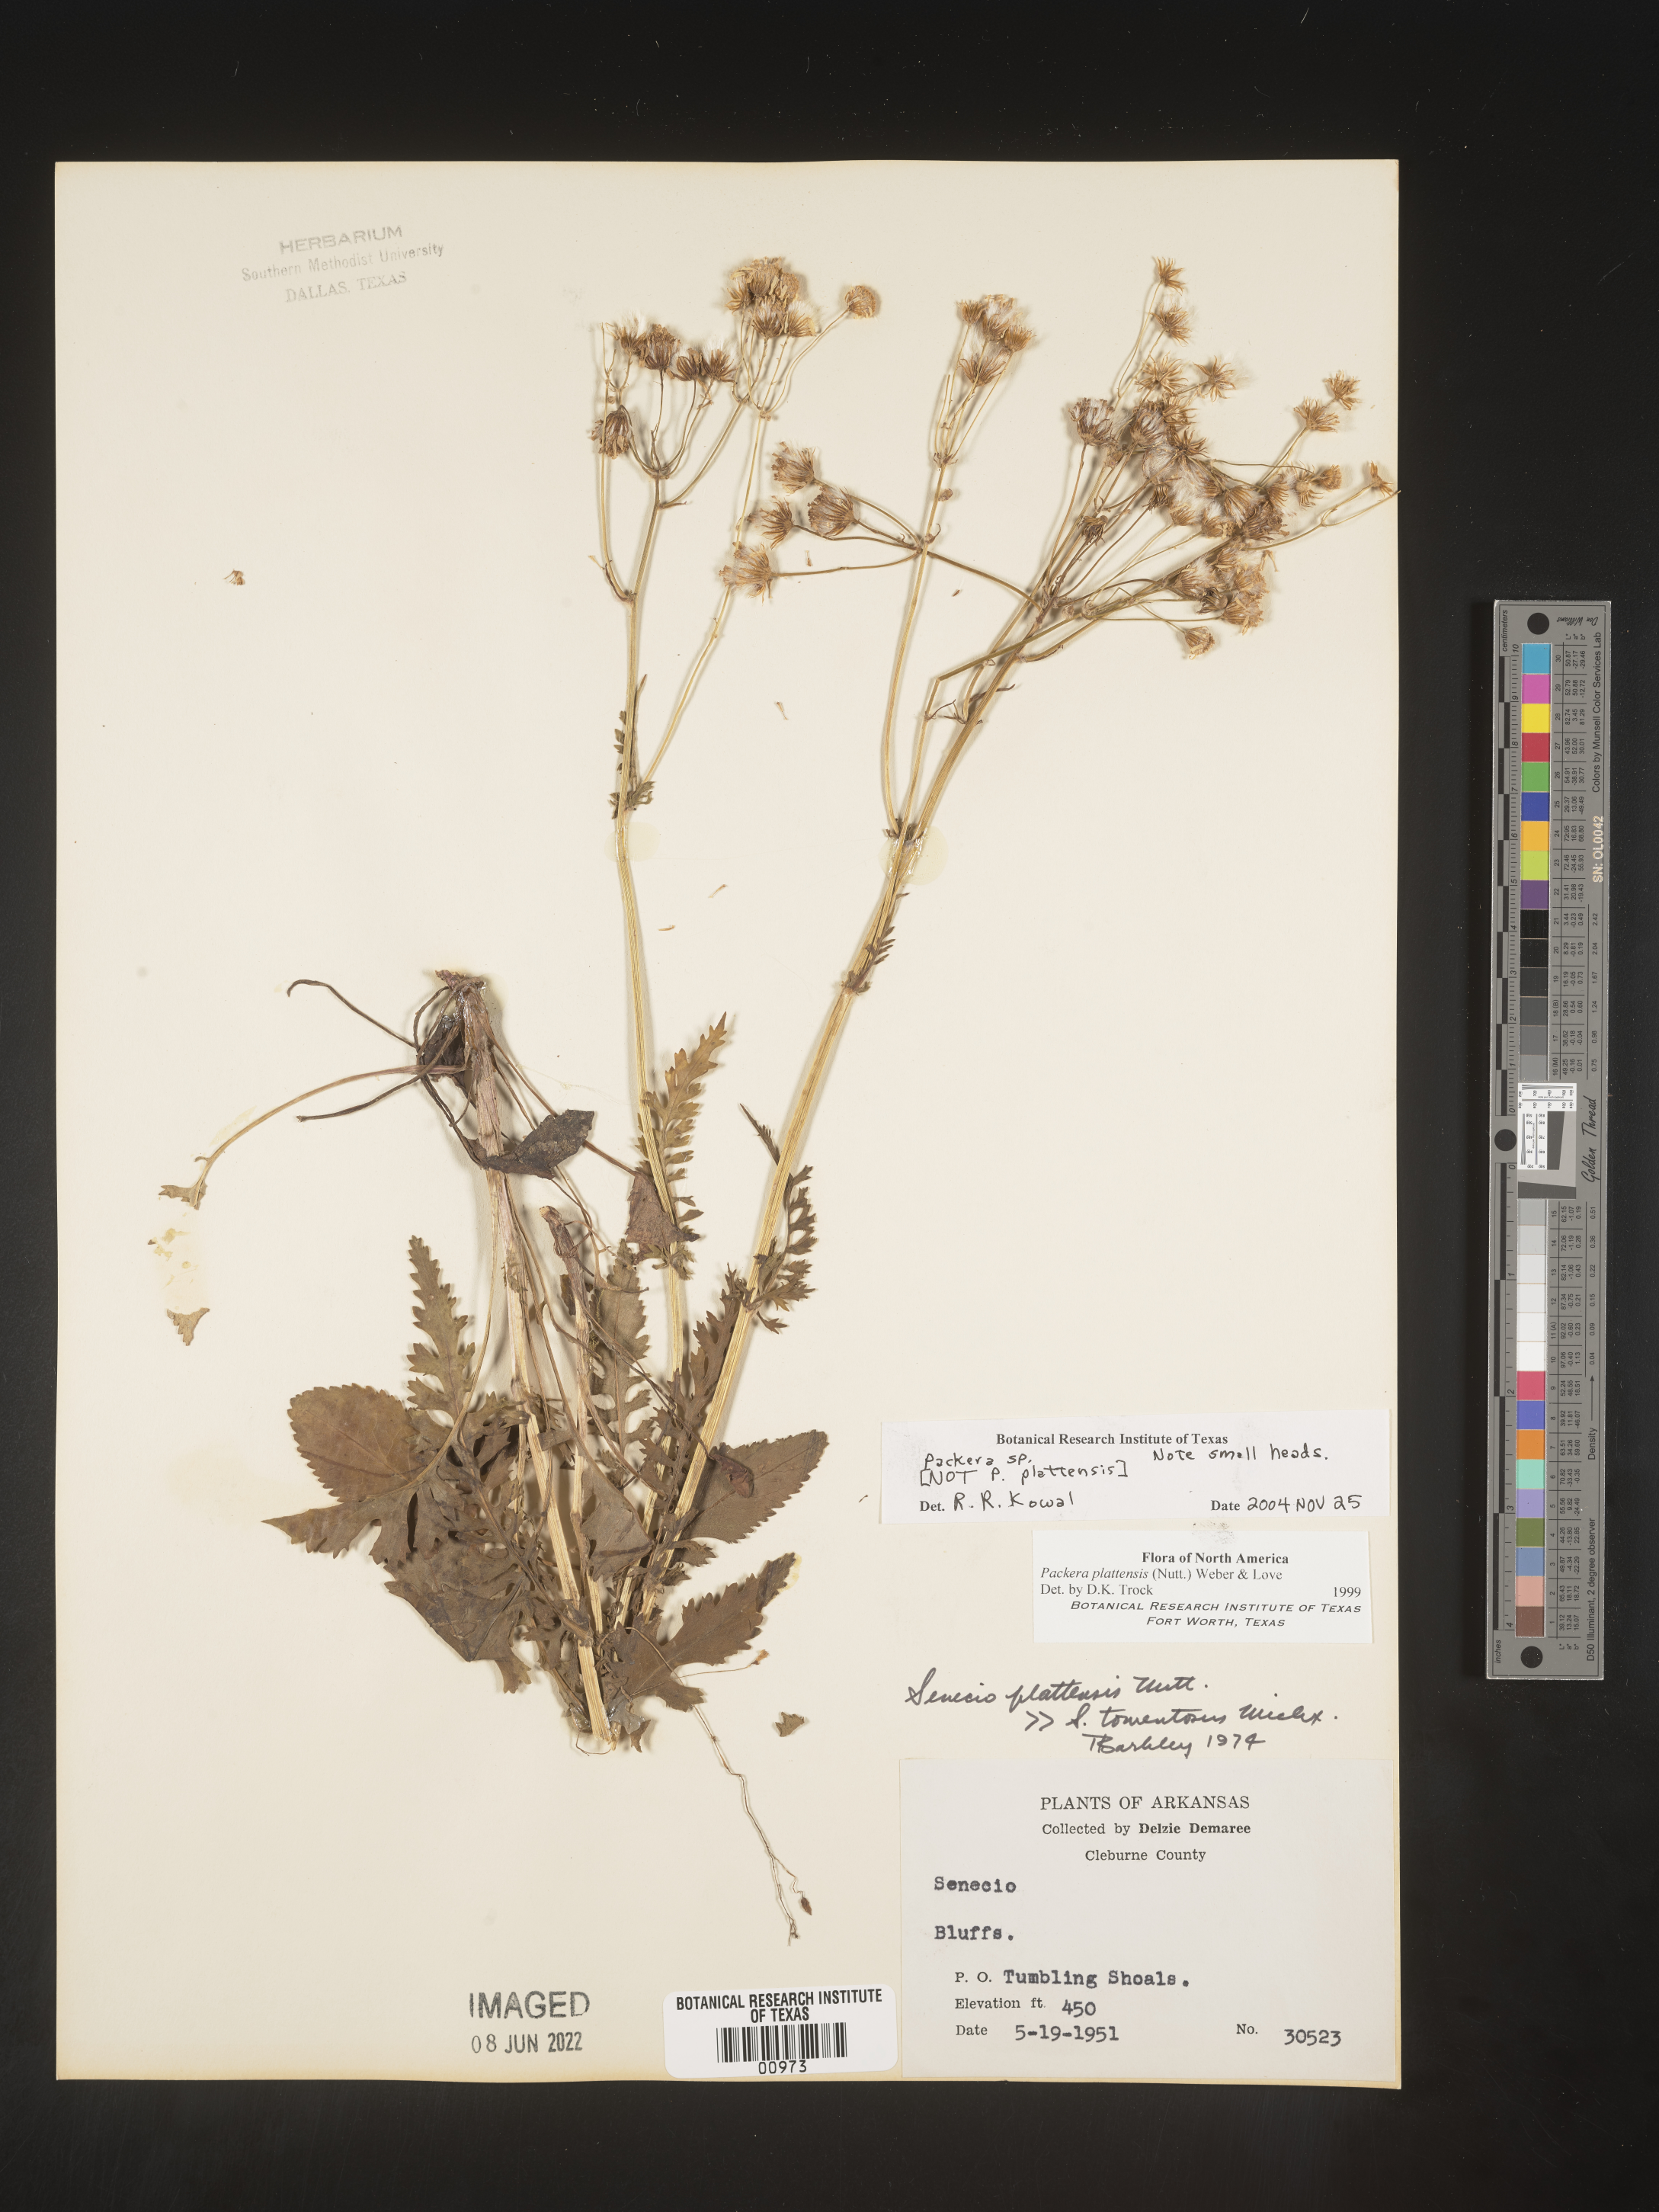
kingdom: Plantae
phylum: Tracheophyta
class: Magnoliopsida
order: Asterales
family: Asteraceae
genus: Packera
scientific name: Packera
